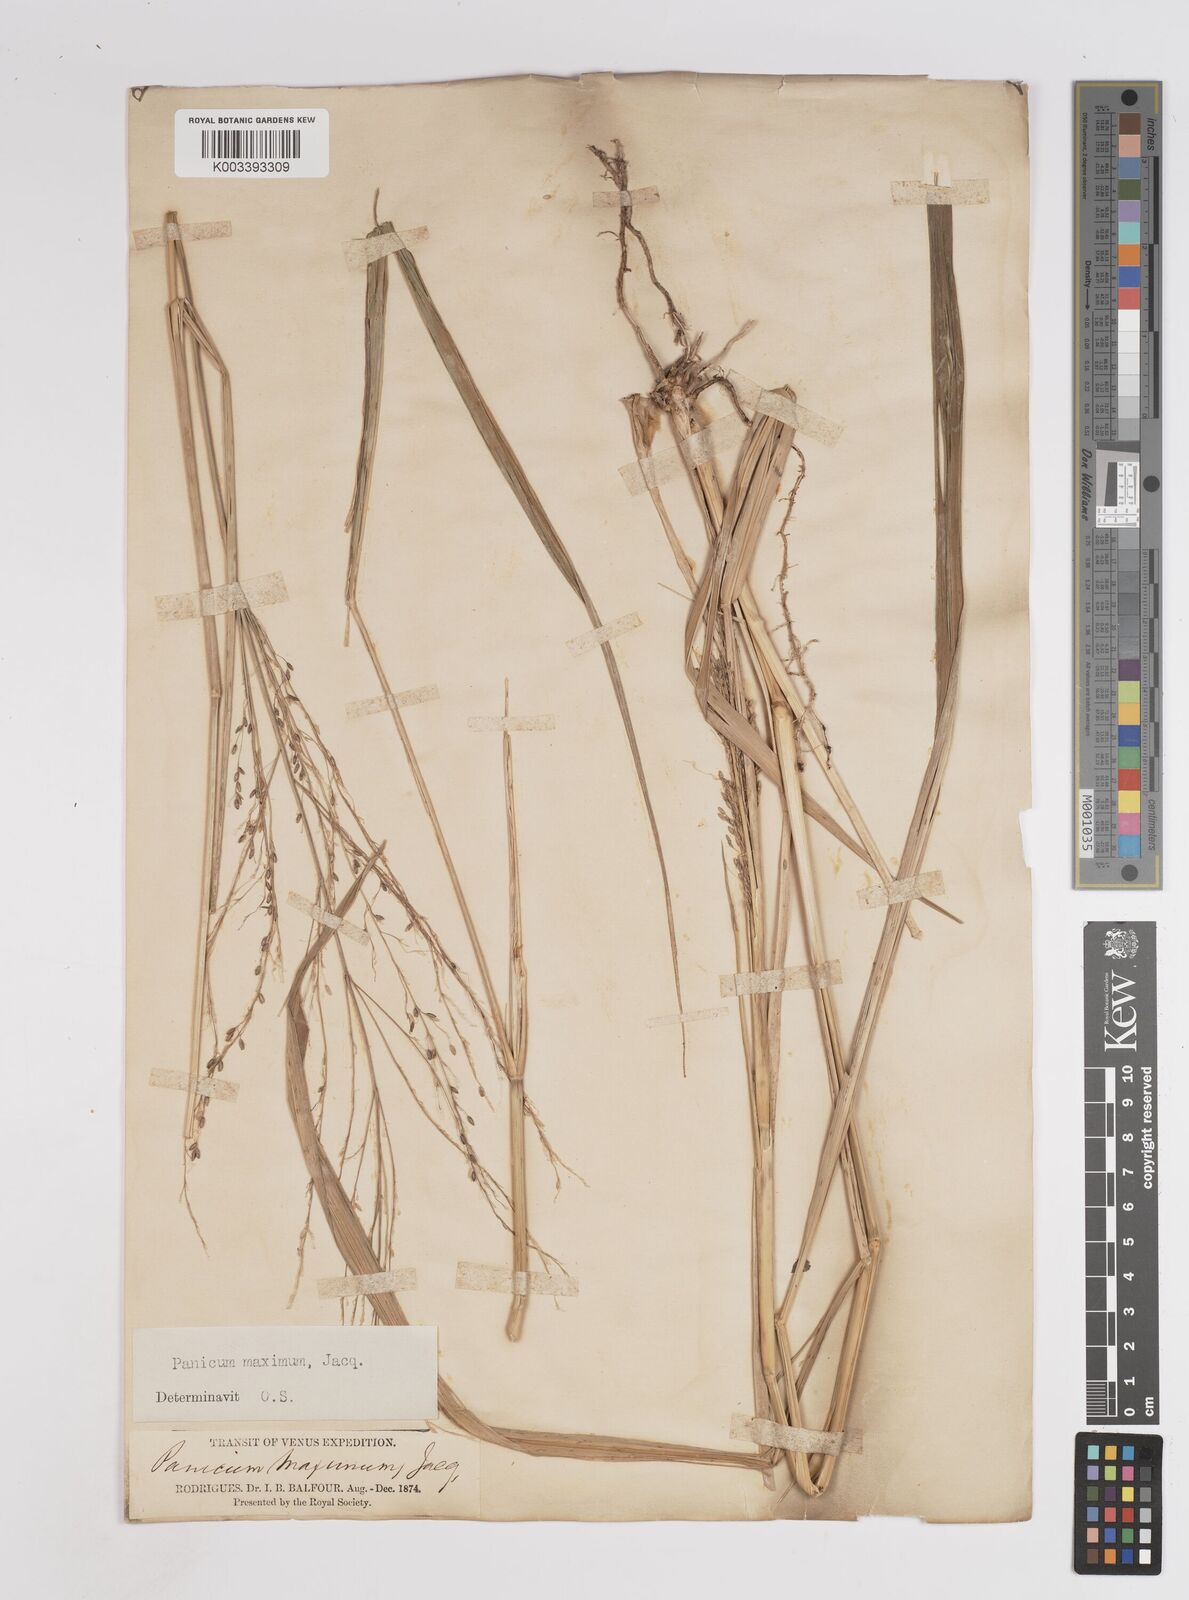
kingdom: Plantae
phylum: Tracheophyta
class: Liliopsida
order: Poales
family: Poaceae
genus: Megathyrsus
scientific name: Megathyrsus maximus
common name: Guineagrass
